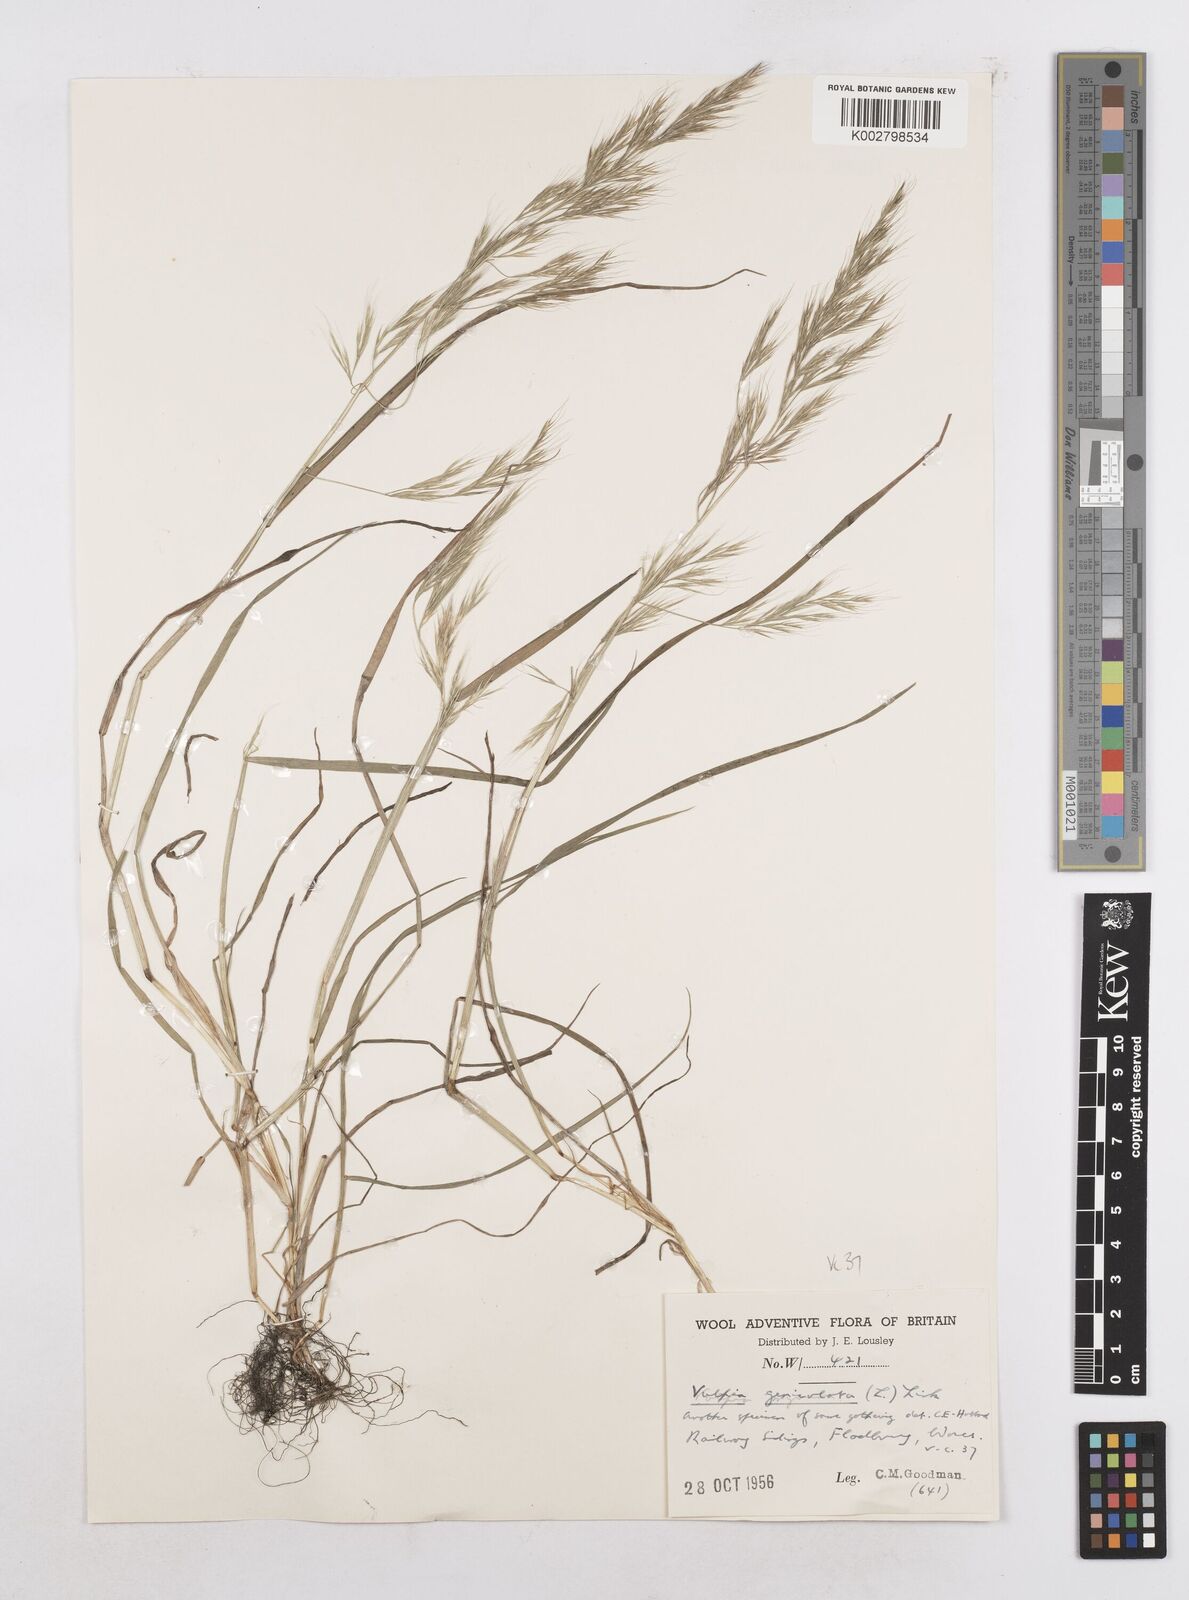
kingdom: Plantae
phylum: Tracheophyta
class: Liliopsida
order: Poales
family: Poaceae
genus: Festuca
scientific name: Festuca geniculata
